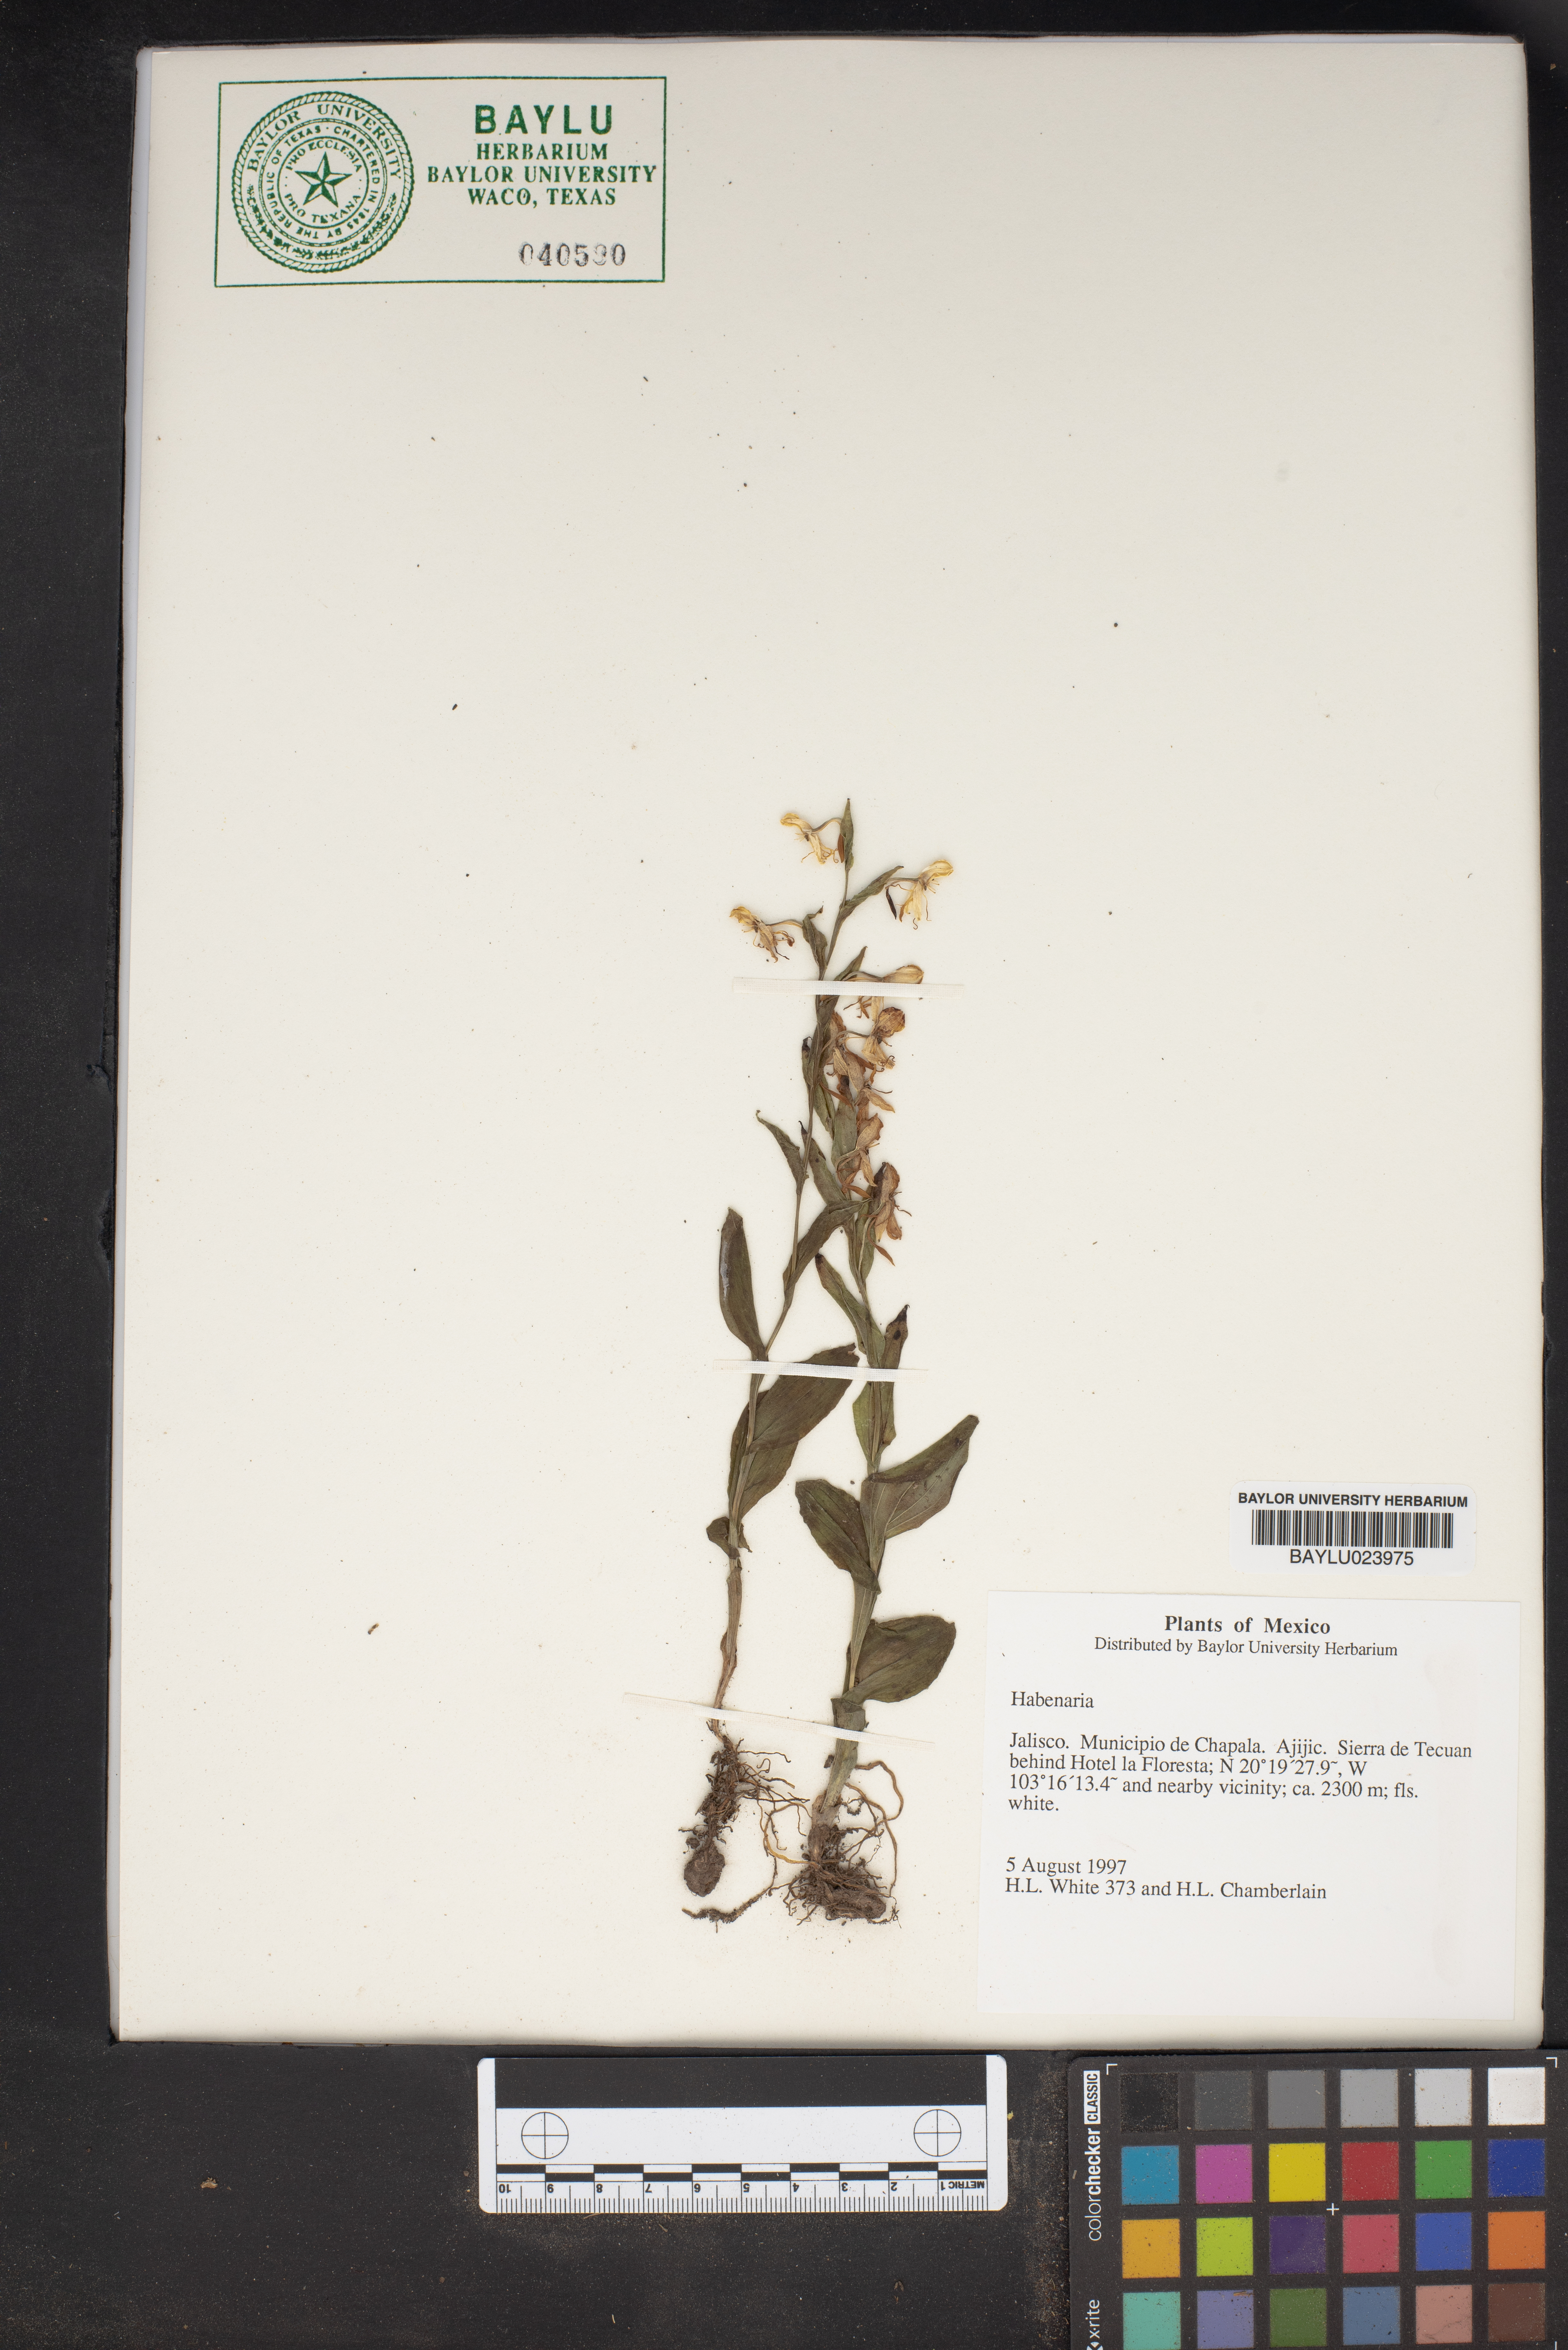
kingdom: Plantae
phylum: Tracheophyta
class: Liliopsida
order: Asparagales
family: Orchidaceae
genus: Habenaria
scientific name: Habenaria
